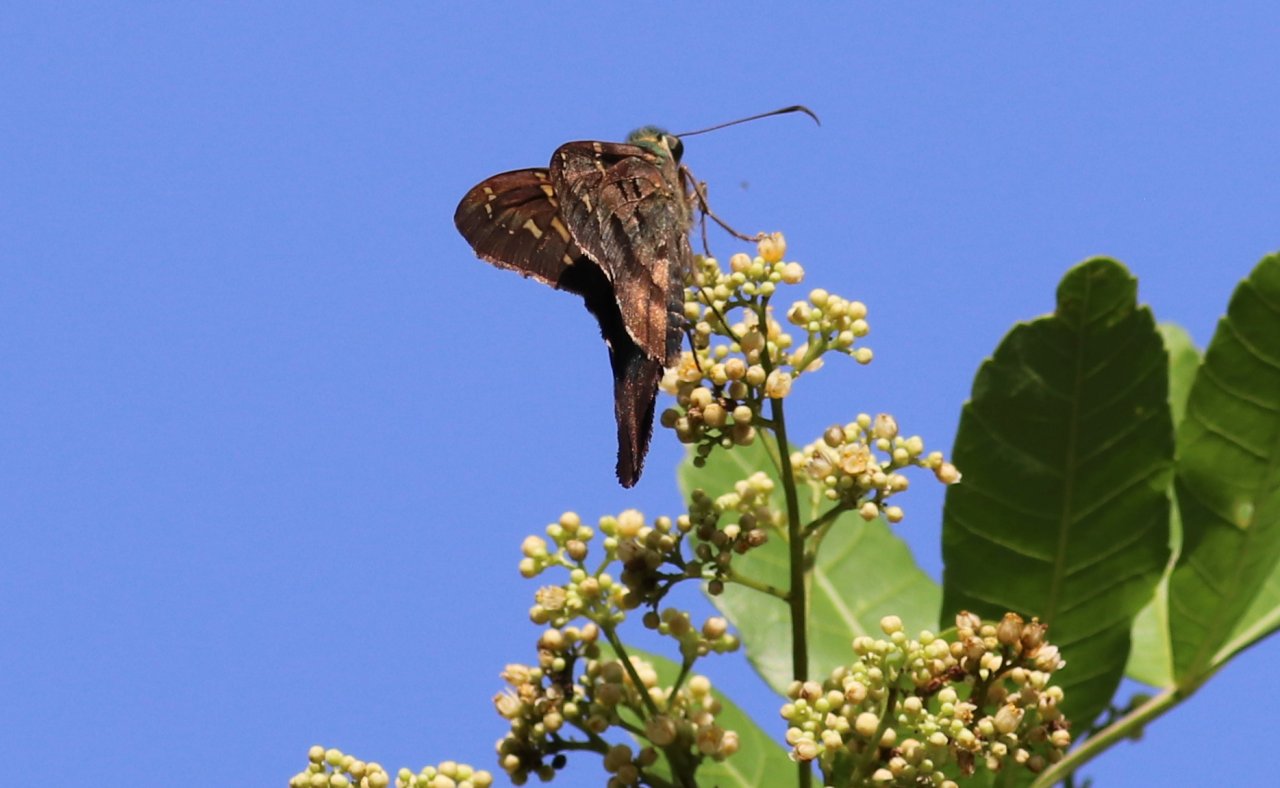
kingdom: Animalia
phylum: Arthropoda
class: Insecta
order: Lepidoptera
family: Hesperiidae
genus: Urbanus
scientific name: Urbanus proteus
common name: Long-tailed Skipper
